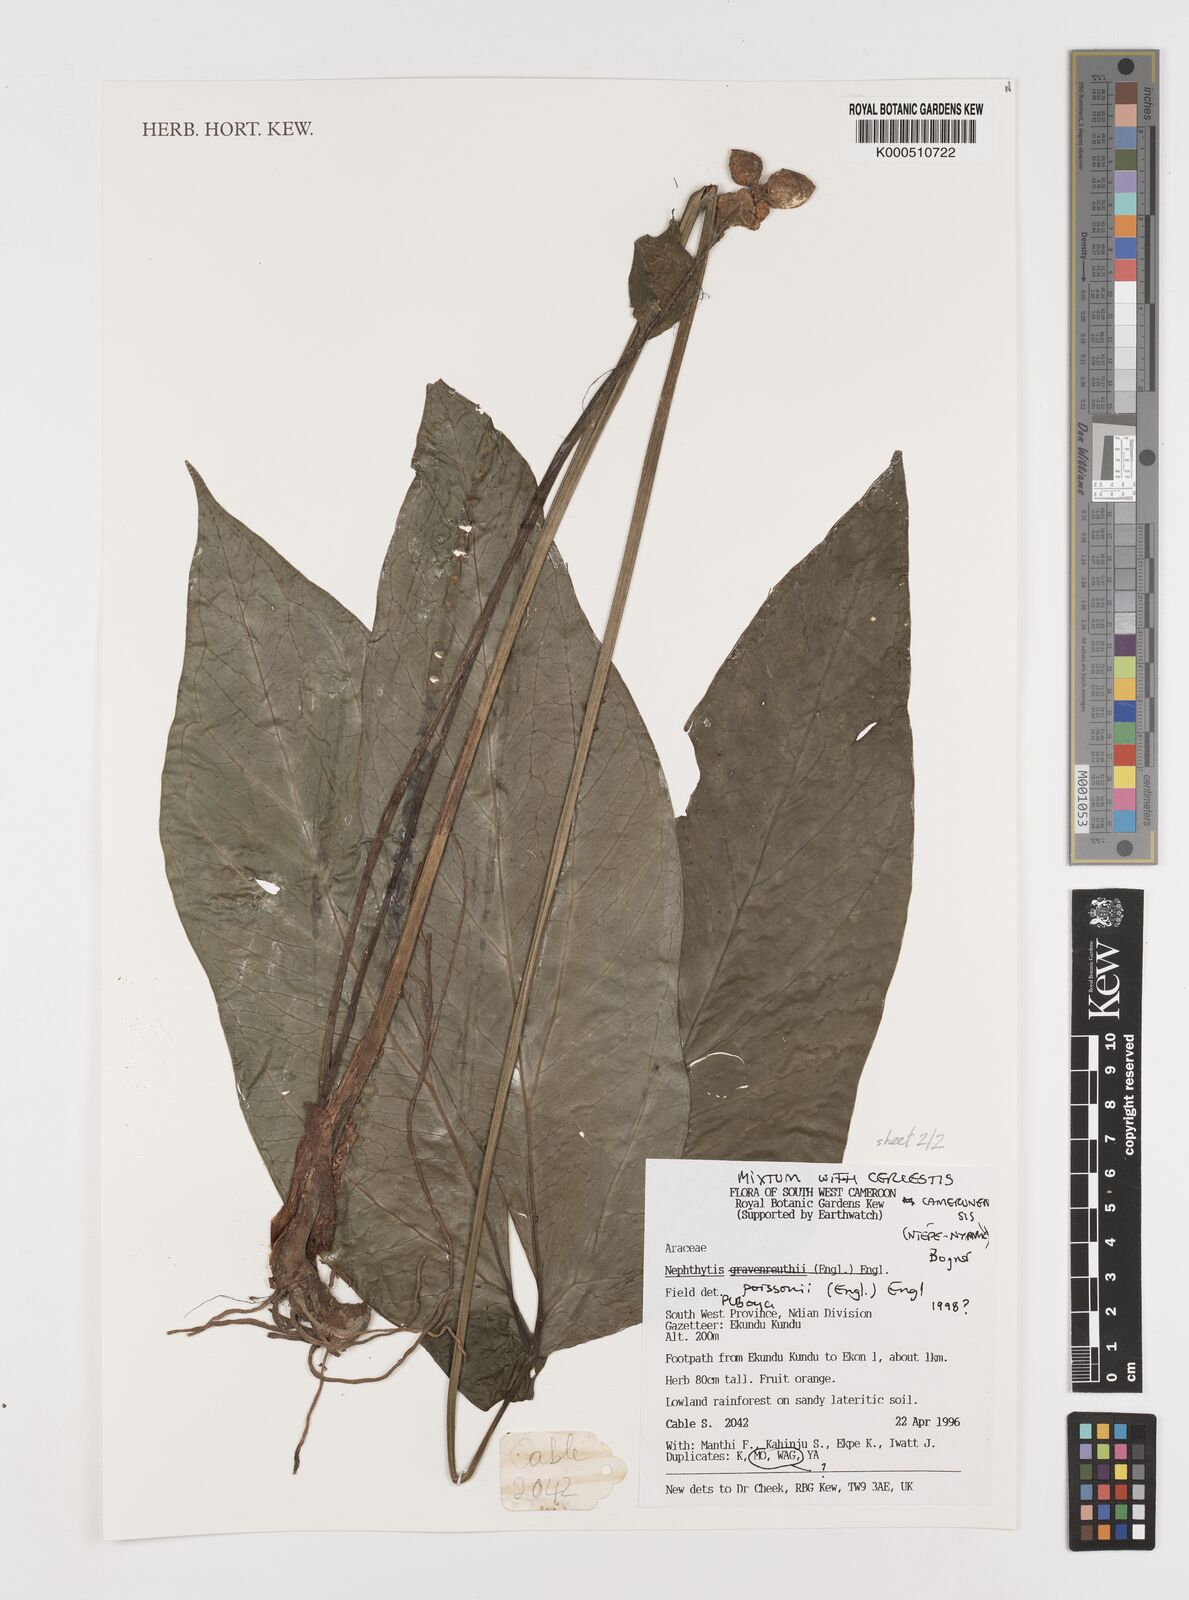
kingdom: Plantae
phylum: Tracheophyta
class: Liliopsida
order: Alismatales
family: Araceae
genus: Nephthytis
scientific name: Nephthytis poissonii
